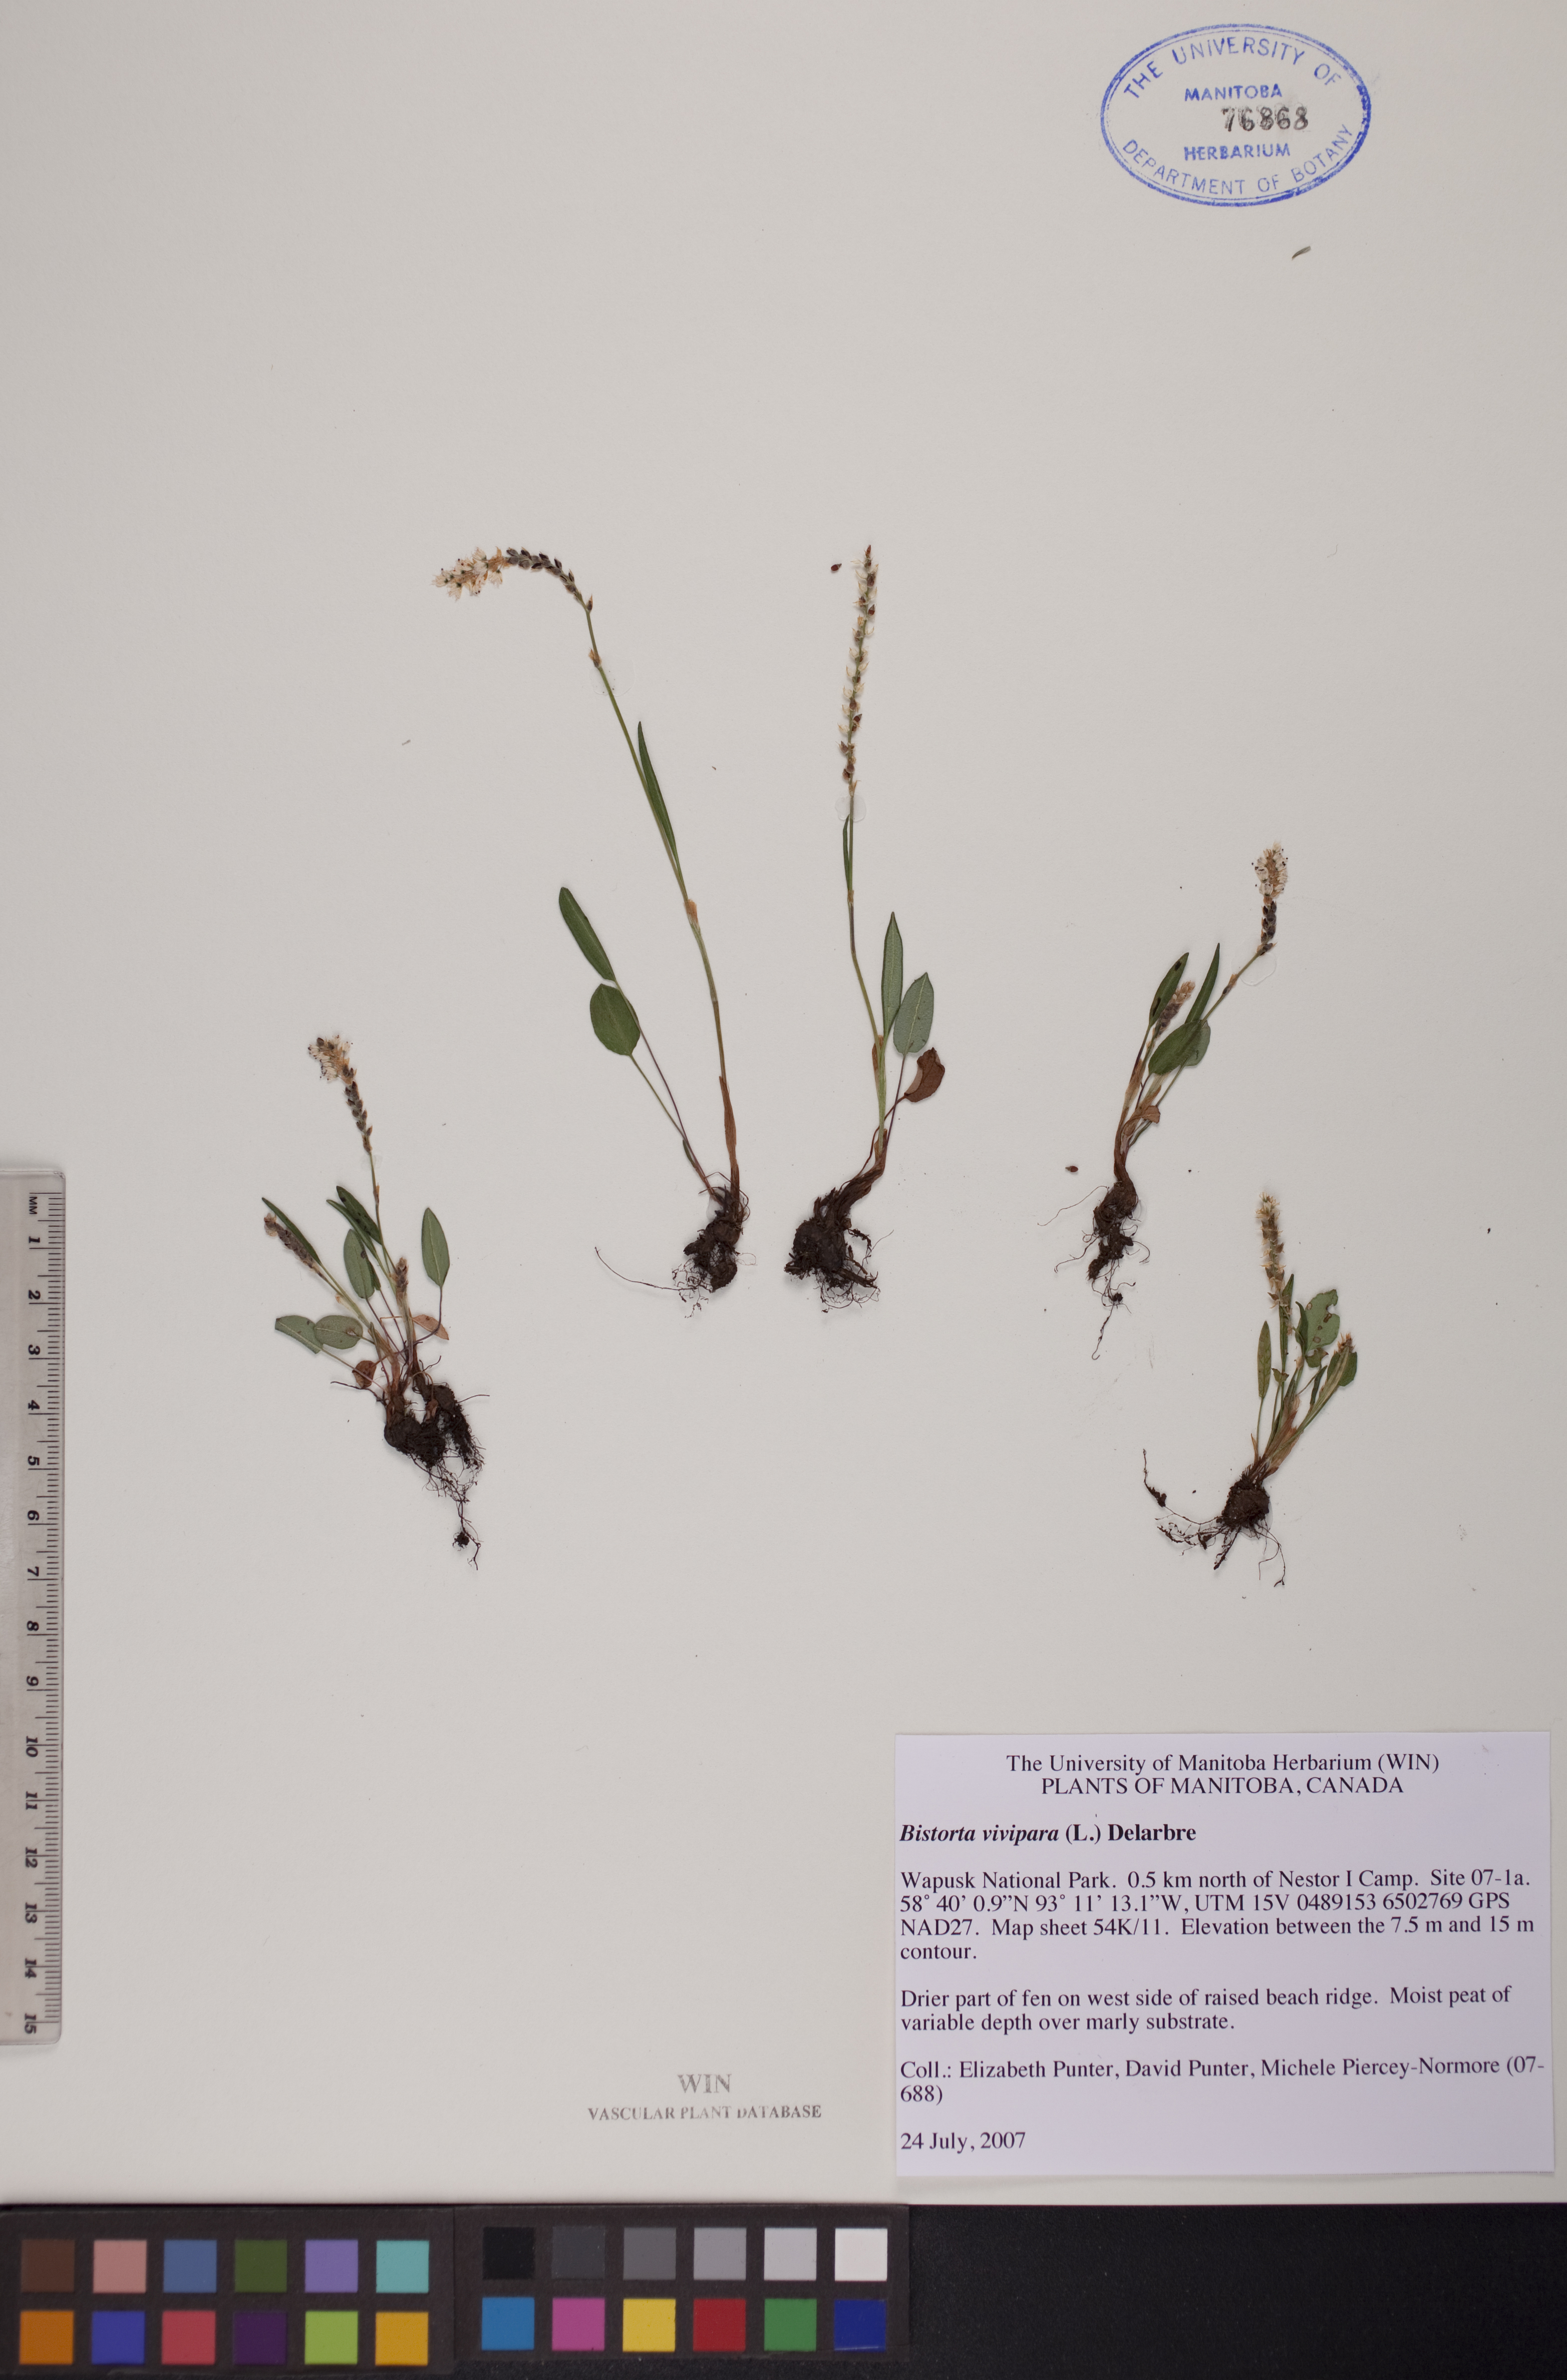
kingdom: Plantae
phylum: Tracheophyta
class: Magnoliopsida
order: Caryophyllales
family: Polygonaceae
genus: Bistorta
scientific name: Bistorta vivipara
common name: Alpine bistort
